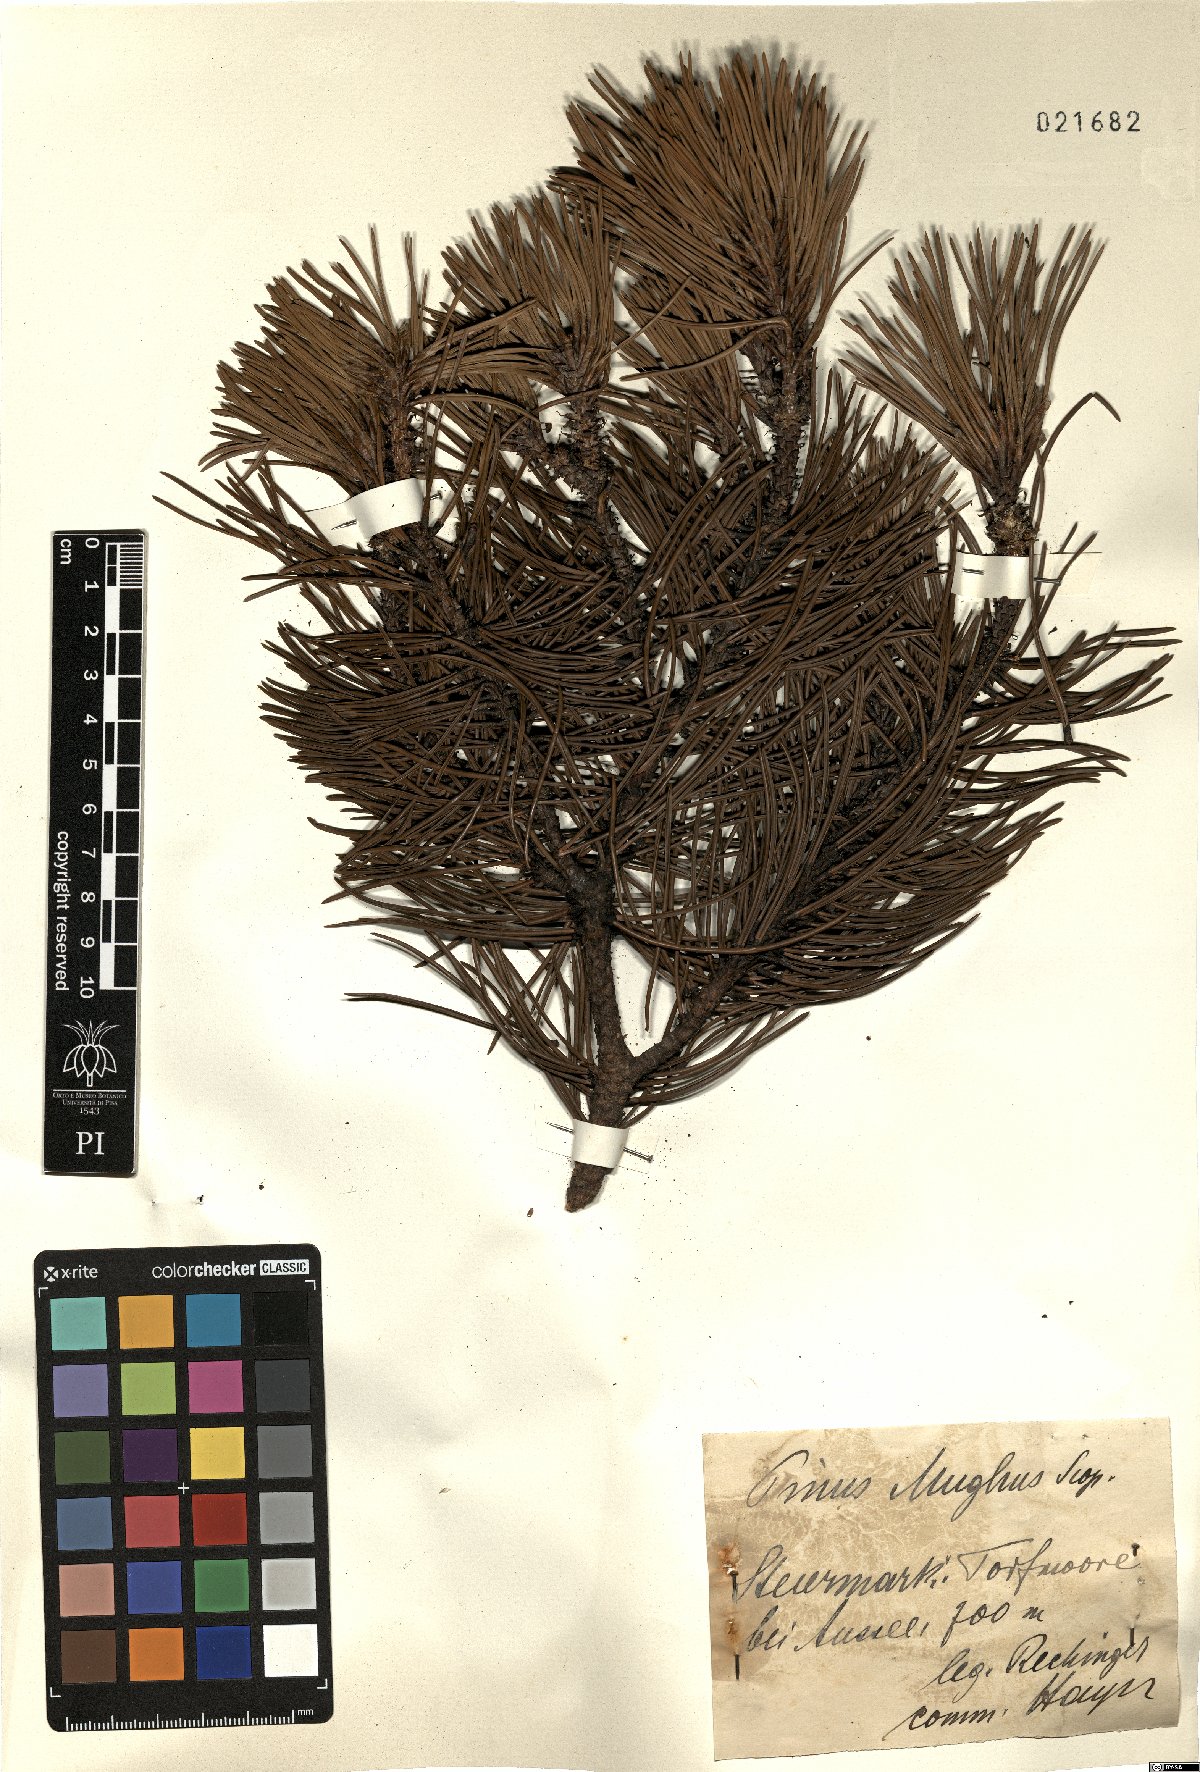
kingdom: Plantae
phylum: Tracheophyta
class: Pinopsida
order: Pinales
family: Pinaceae
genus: Pinus
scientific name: Pinus mugo
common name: Mugo pine
